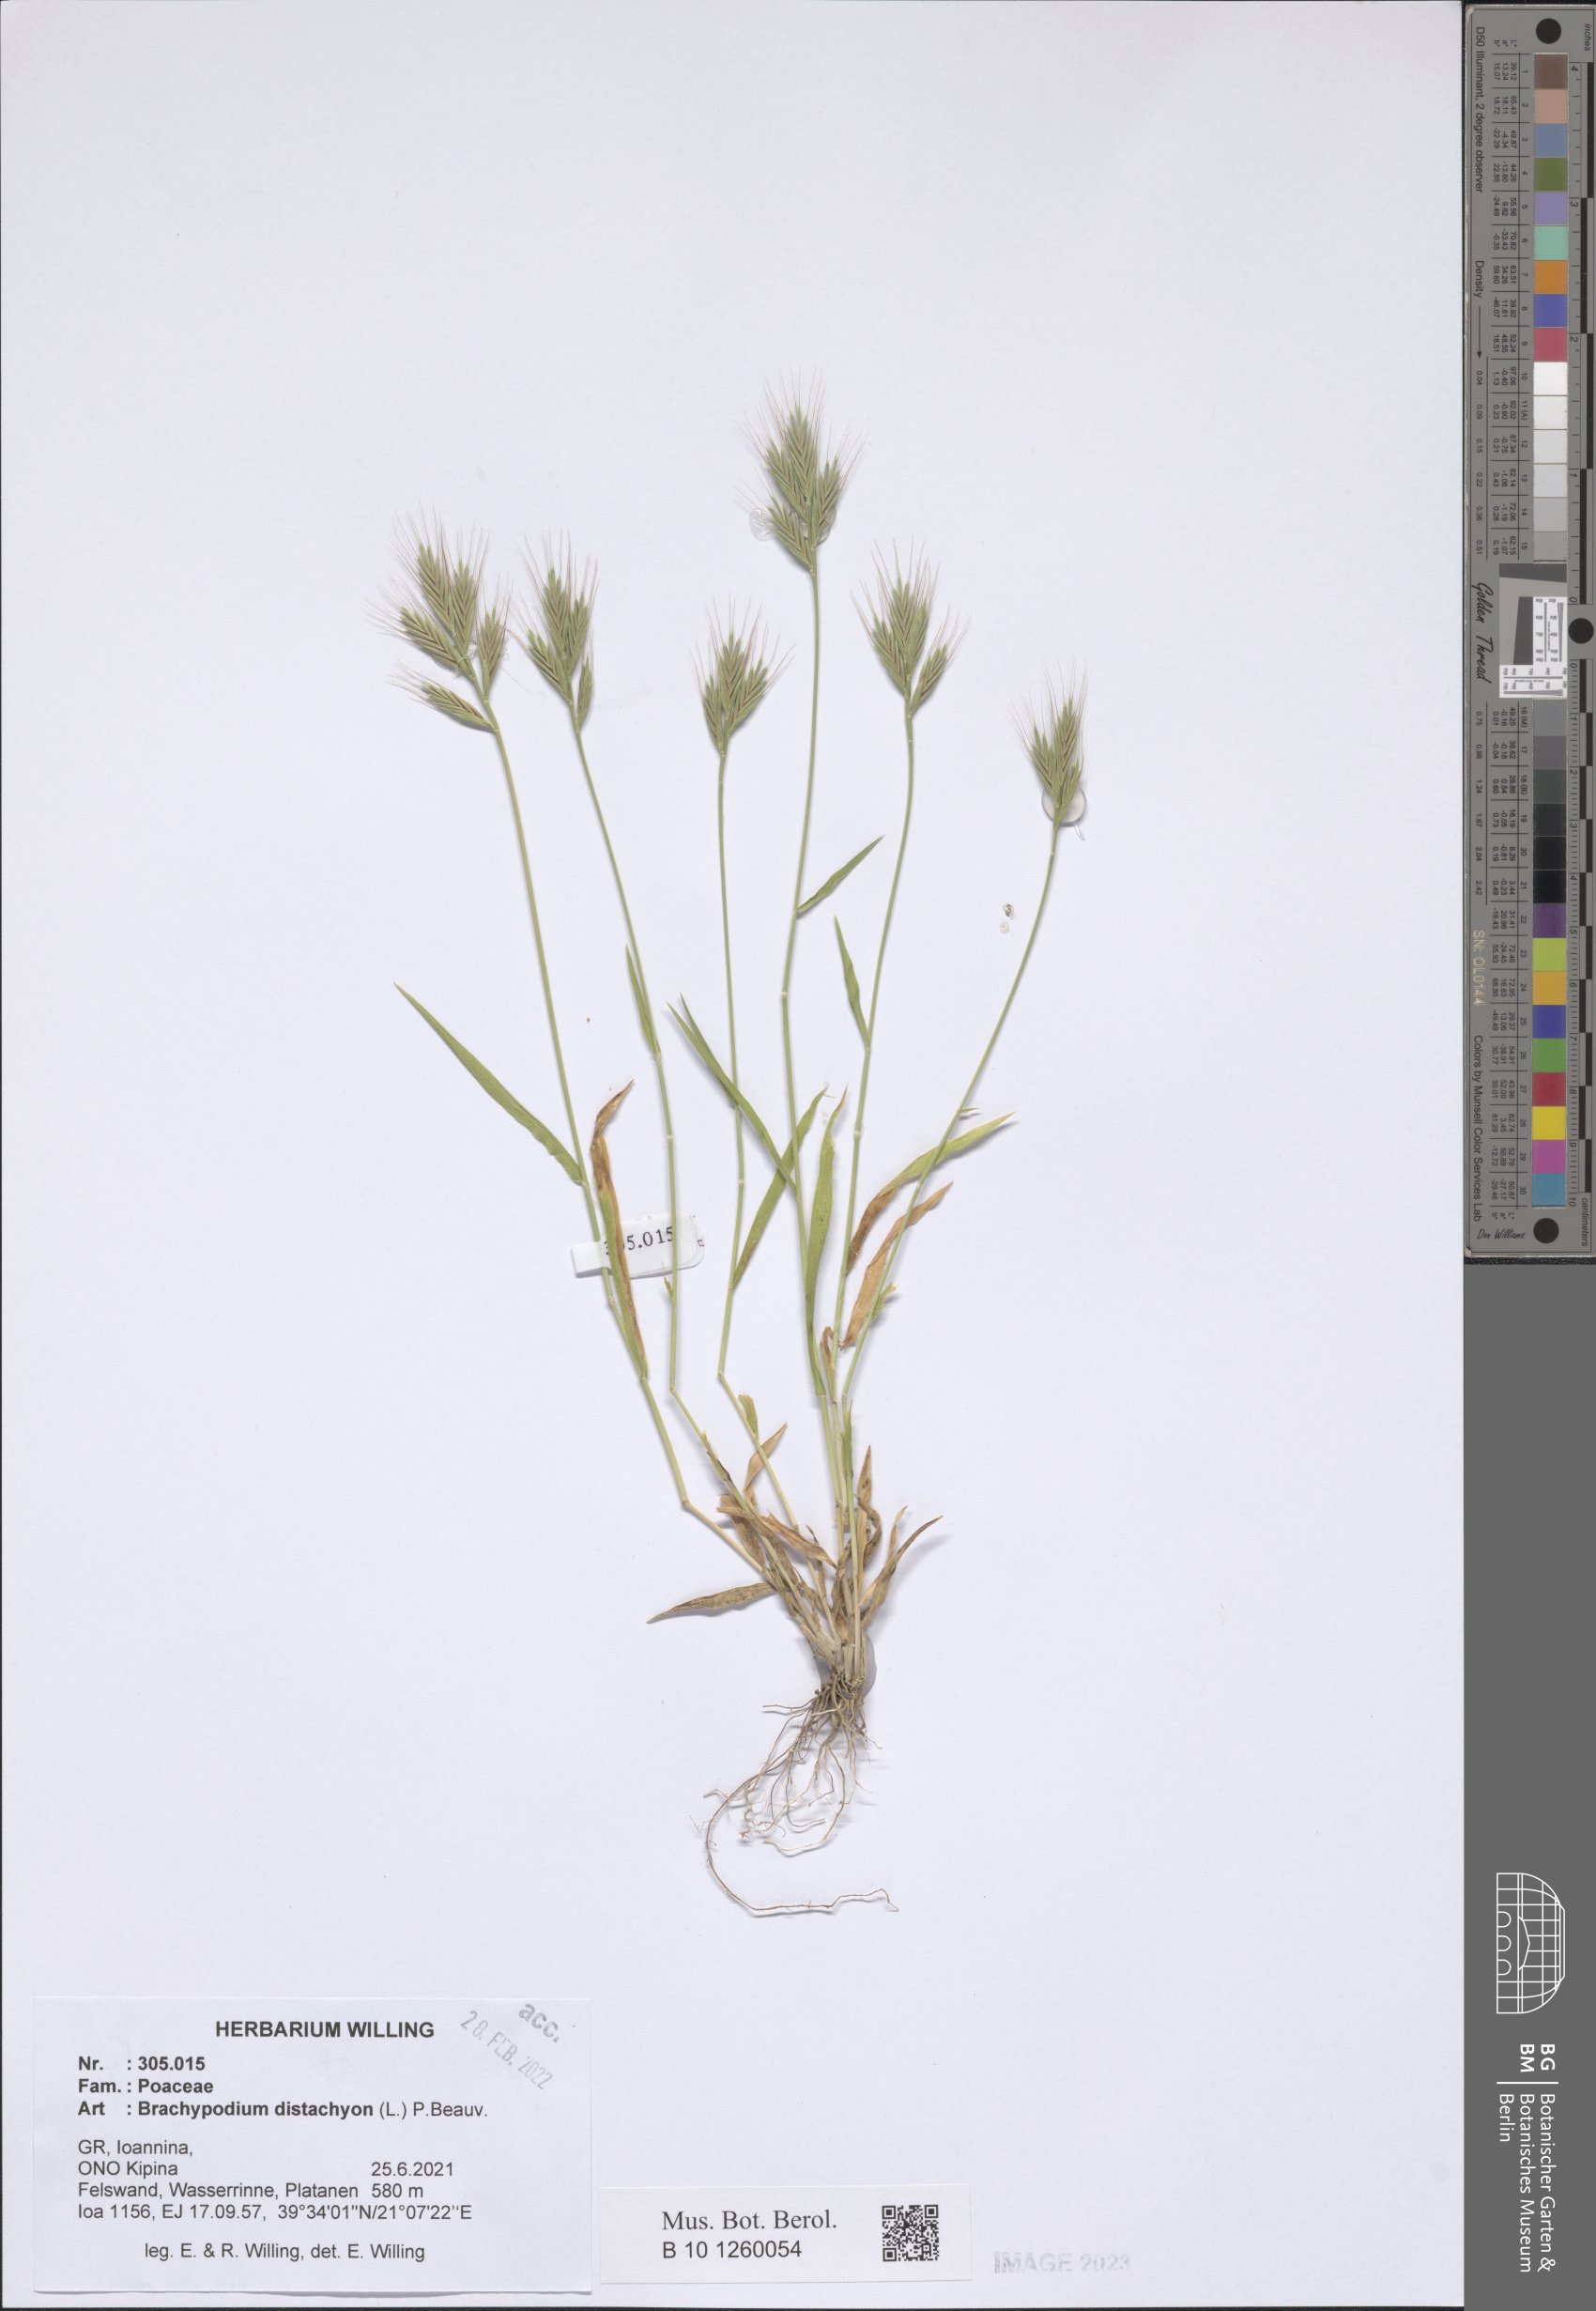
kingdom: Plantae
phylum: Tracheophyta
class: Liliopsida
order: Poales
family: Poaceae
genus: Brachypodium
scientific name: Brachypodium distachyon
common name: Stiff brome
